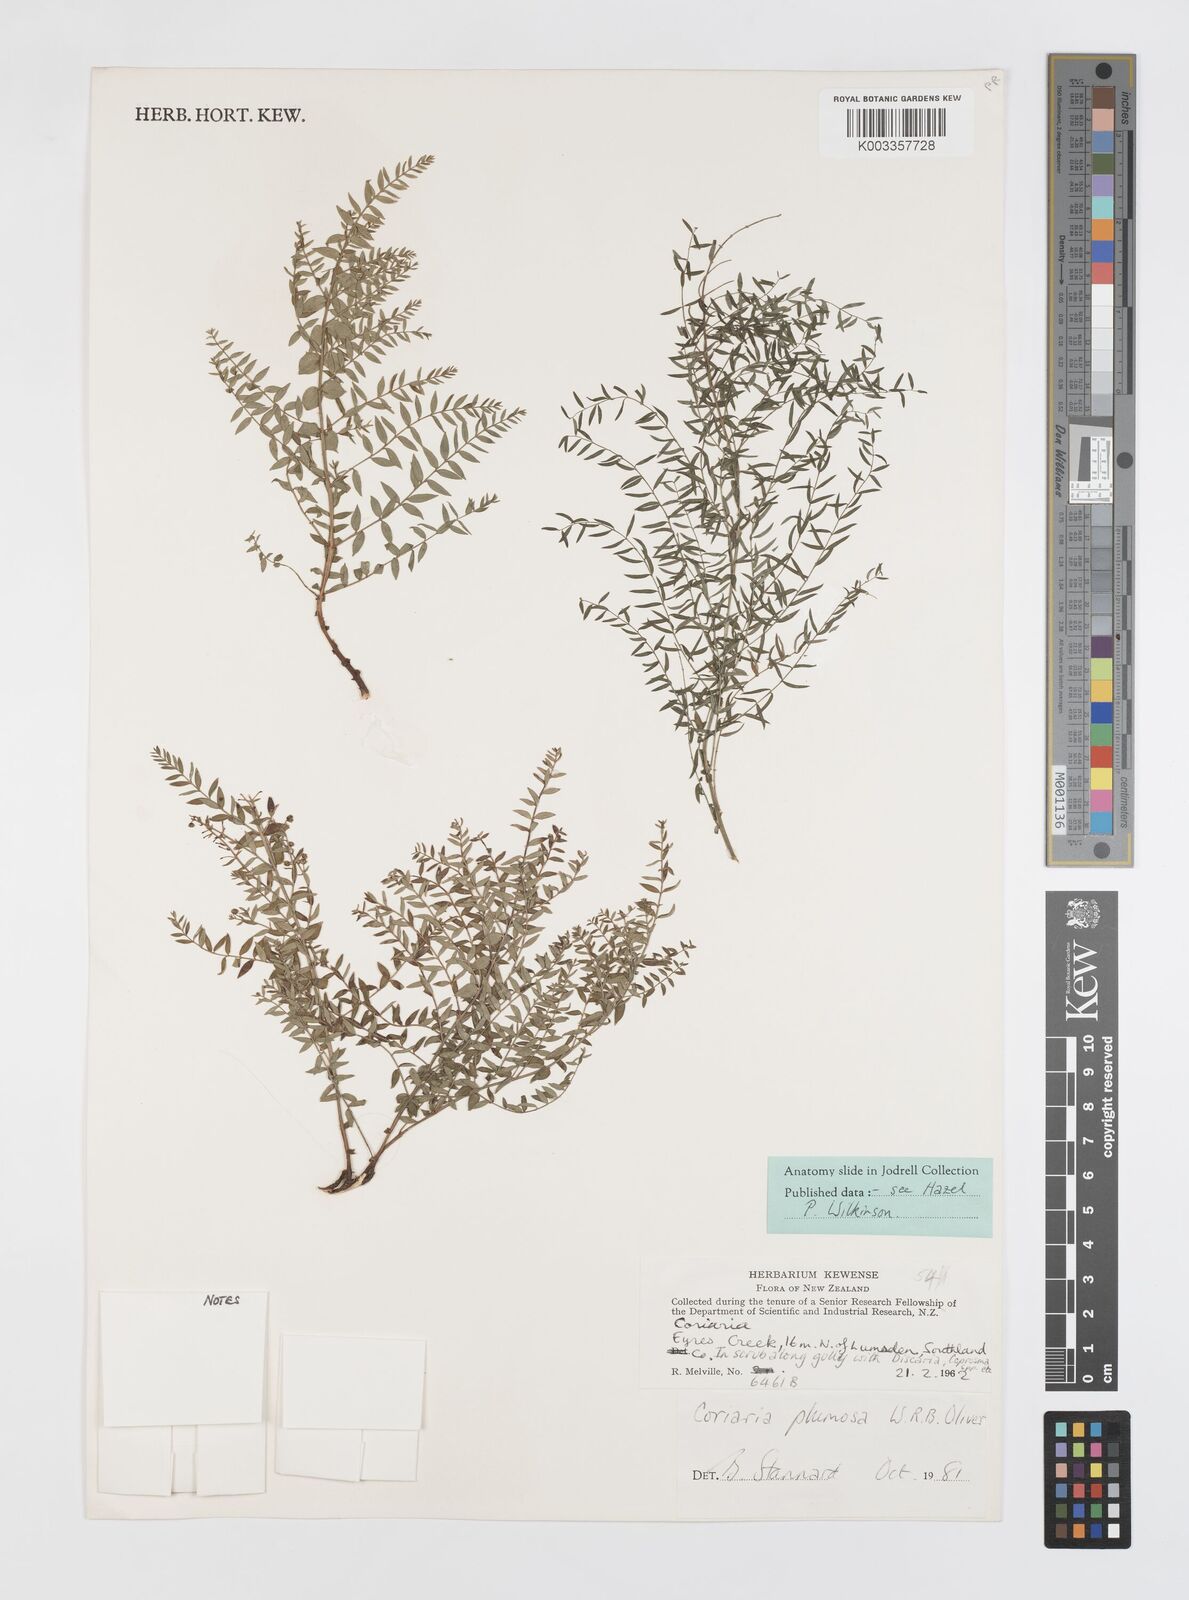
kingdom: Plantae
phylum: Tracheophyta
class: Magnoliopsida
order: Cucurbitales
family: Coriariaceae
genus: Coriaria
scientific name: Coriaria plumosa
